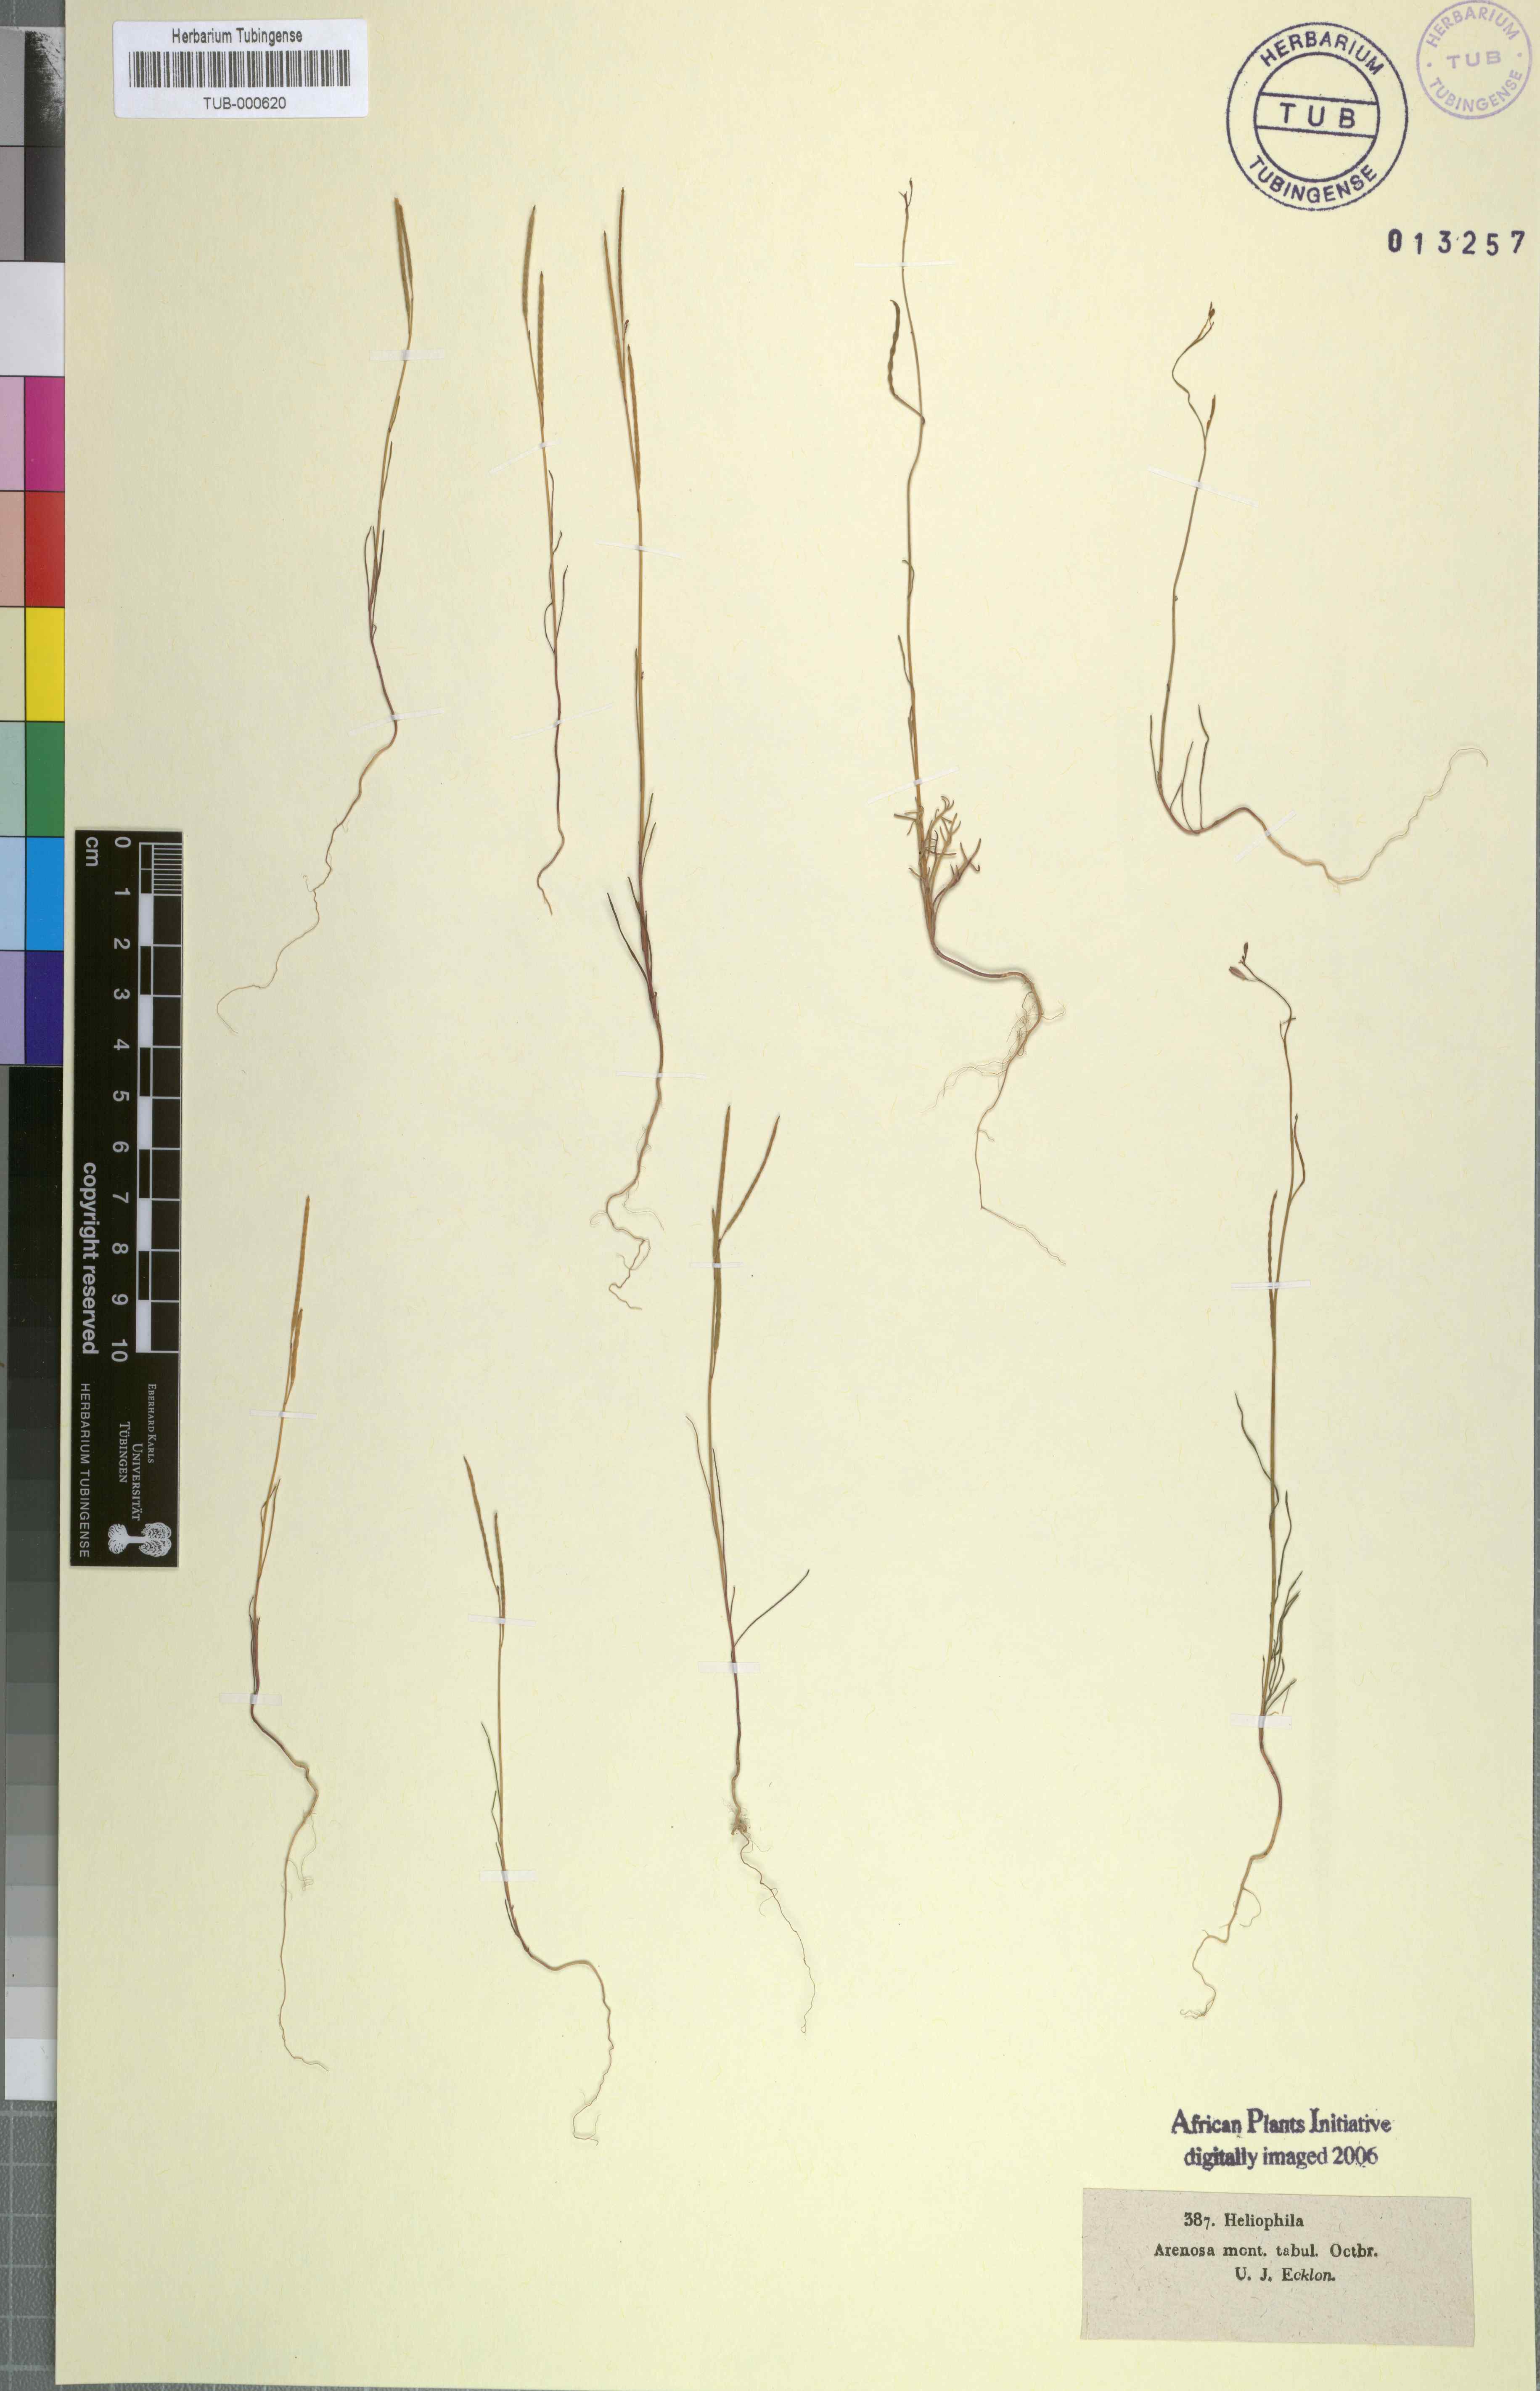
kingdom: Plantae
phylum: Tracheophyta
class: Magnoliopsida
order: Brassicales
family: Brassicaceae
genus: Heliophila
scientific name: Heliophila
